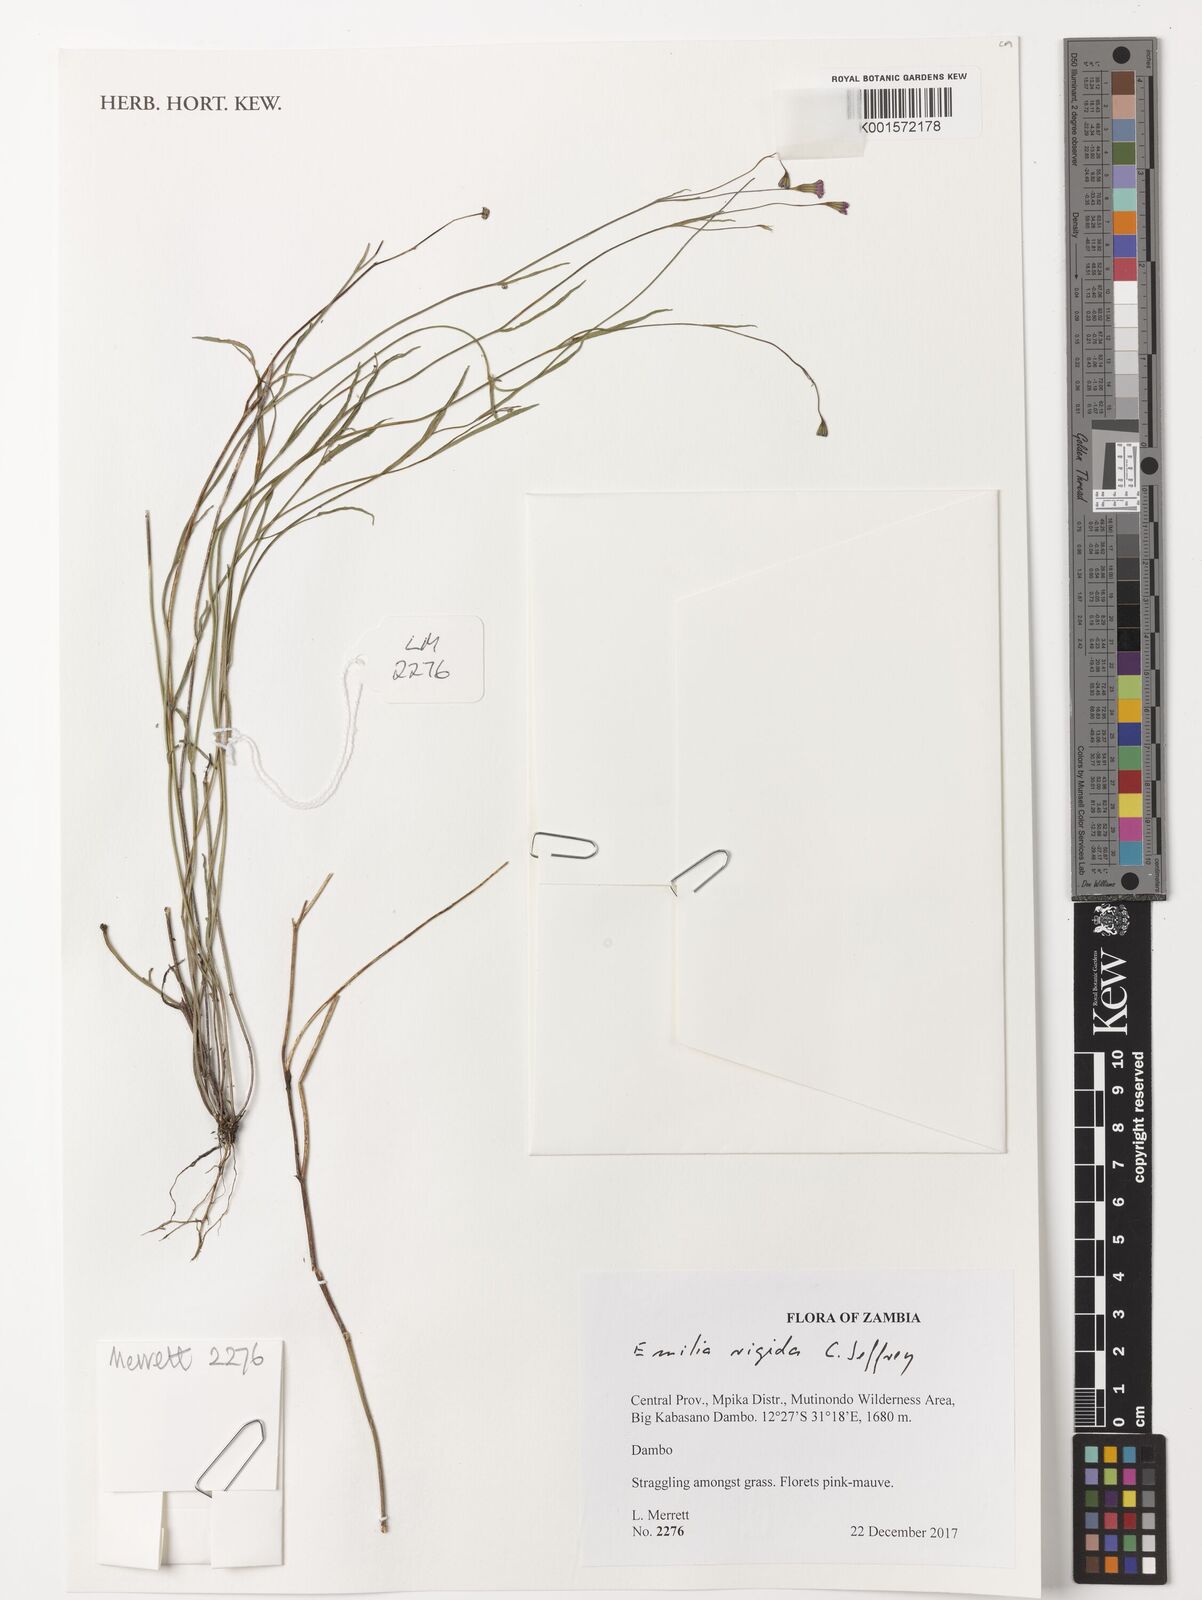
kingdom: Plantae
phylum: Tracheophyta
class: Magnoliopsida
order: Asterales
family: Asteraceae
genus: Emilia
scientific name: Emilia rigida
